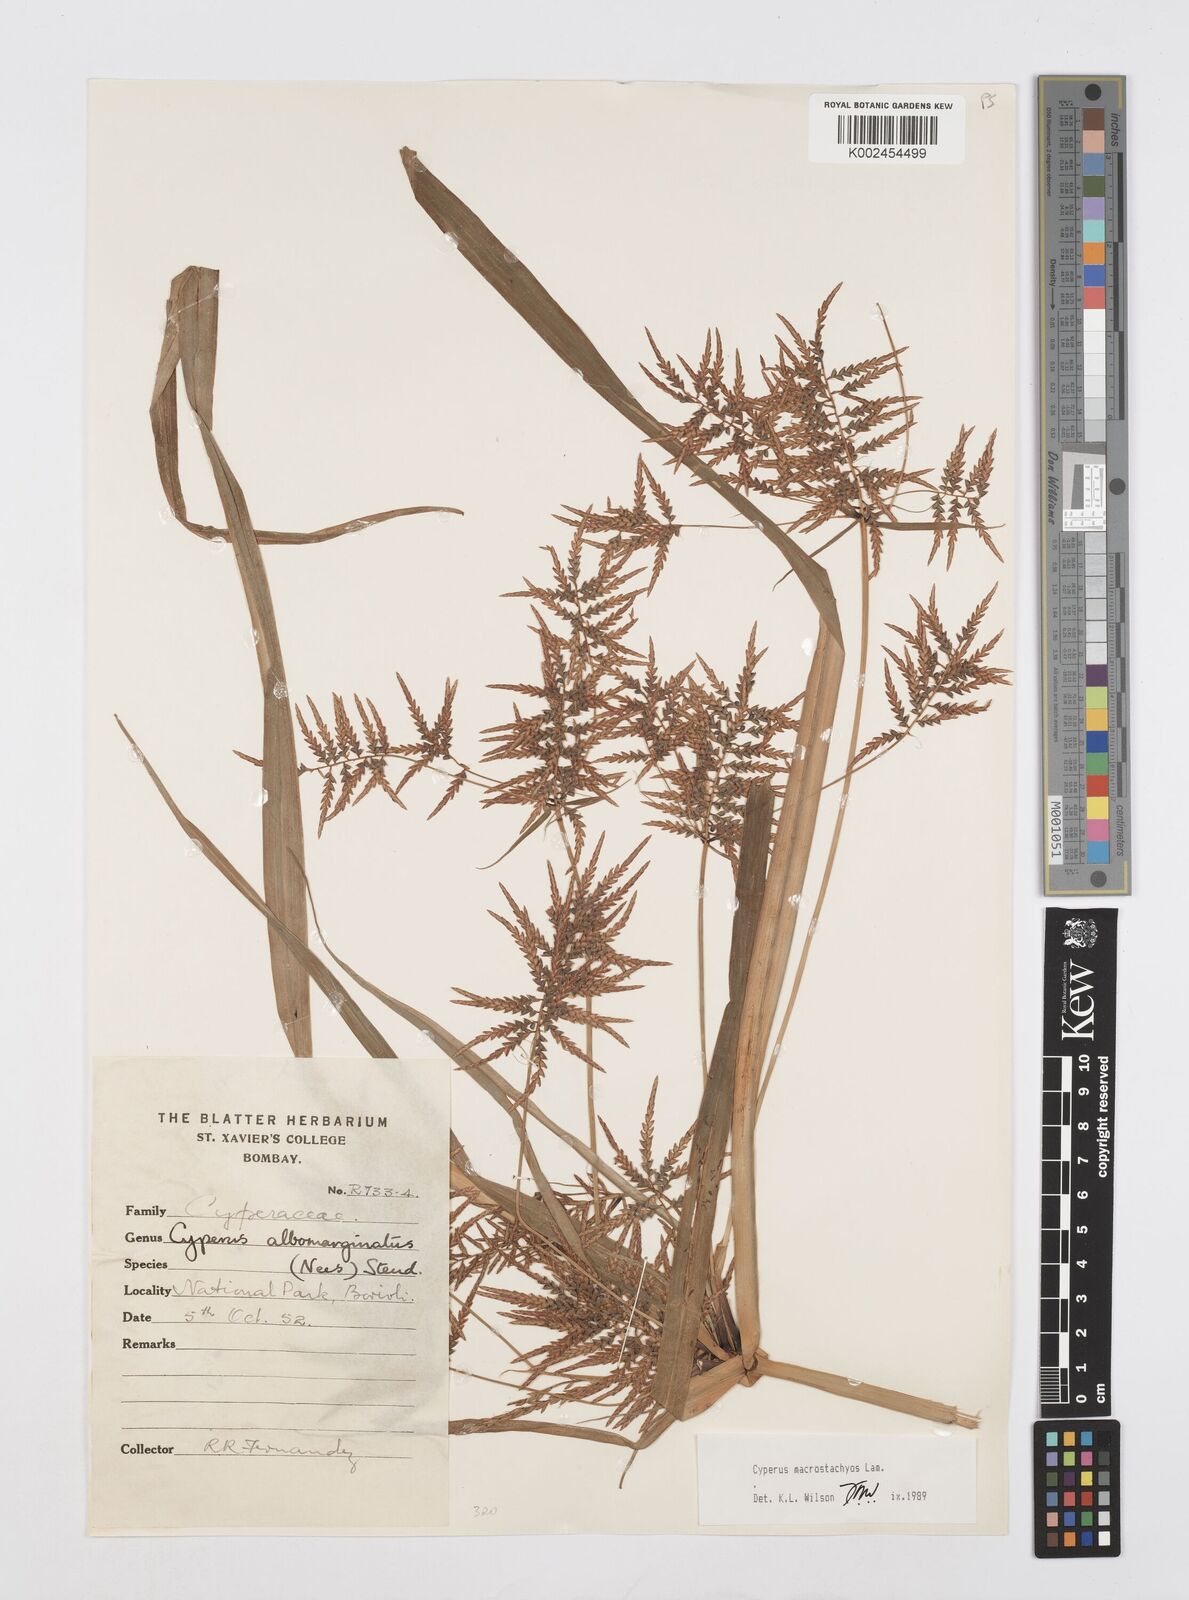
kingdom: Plantae
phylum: Tracheophyta
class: Liliopsida
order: Poales
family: Cyperaceae
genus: Cyperus
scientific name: Cyperus macrostachyos
